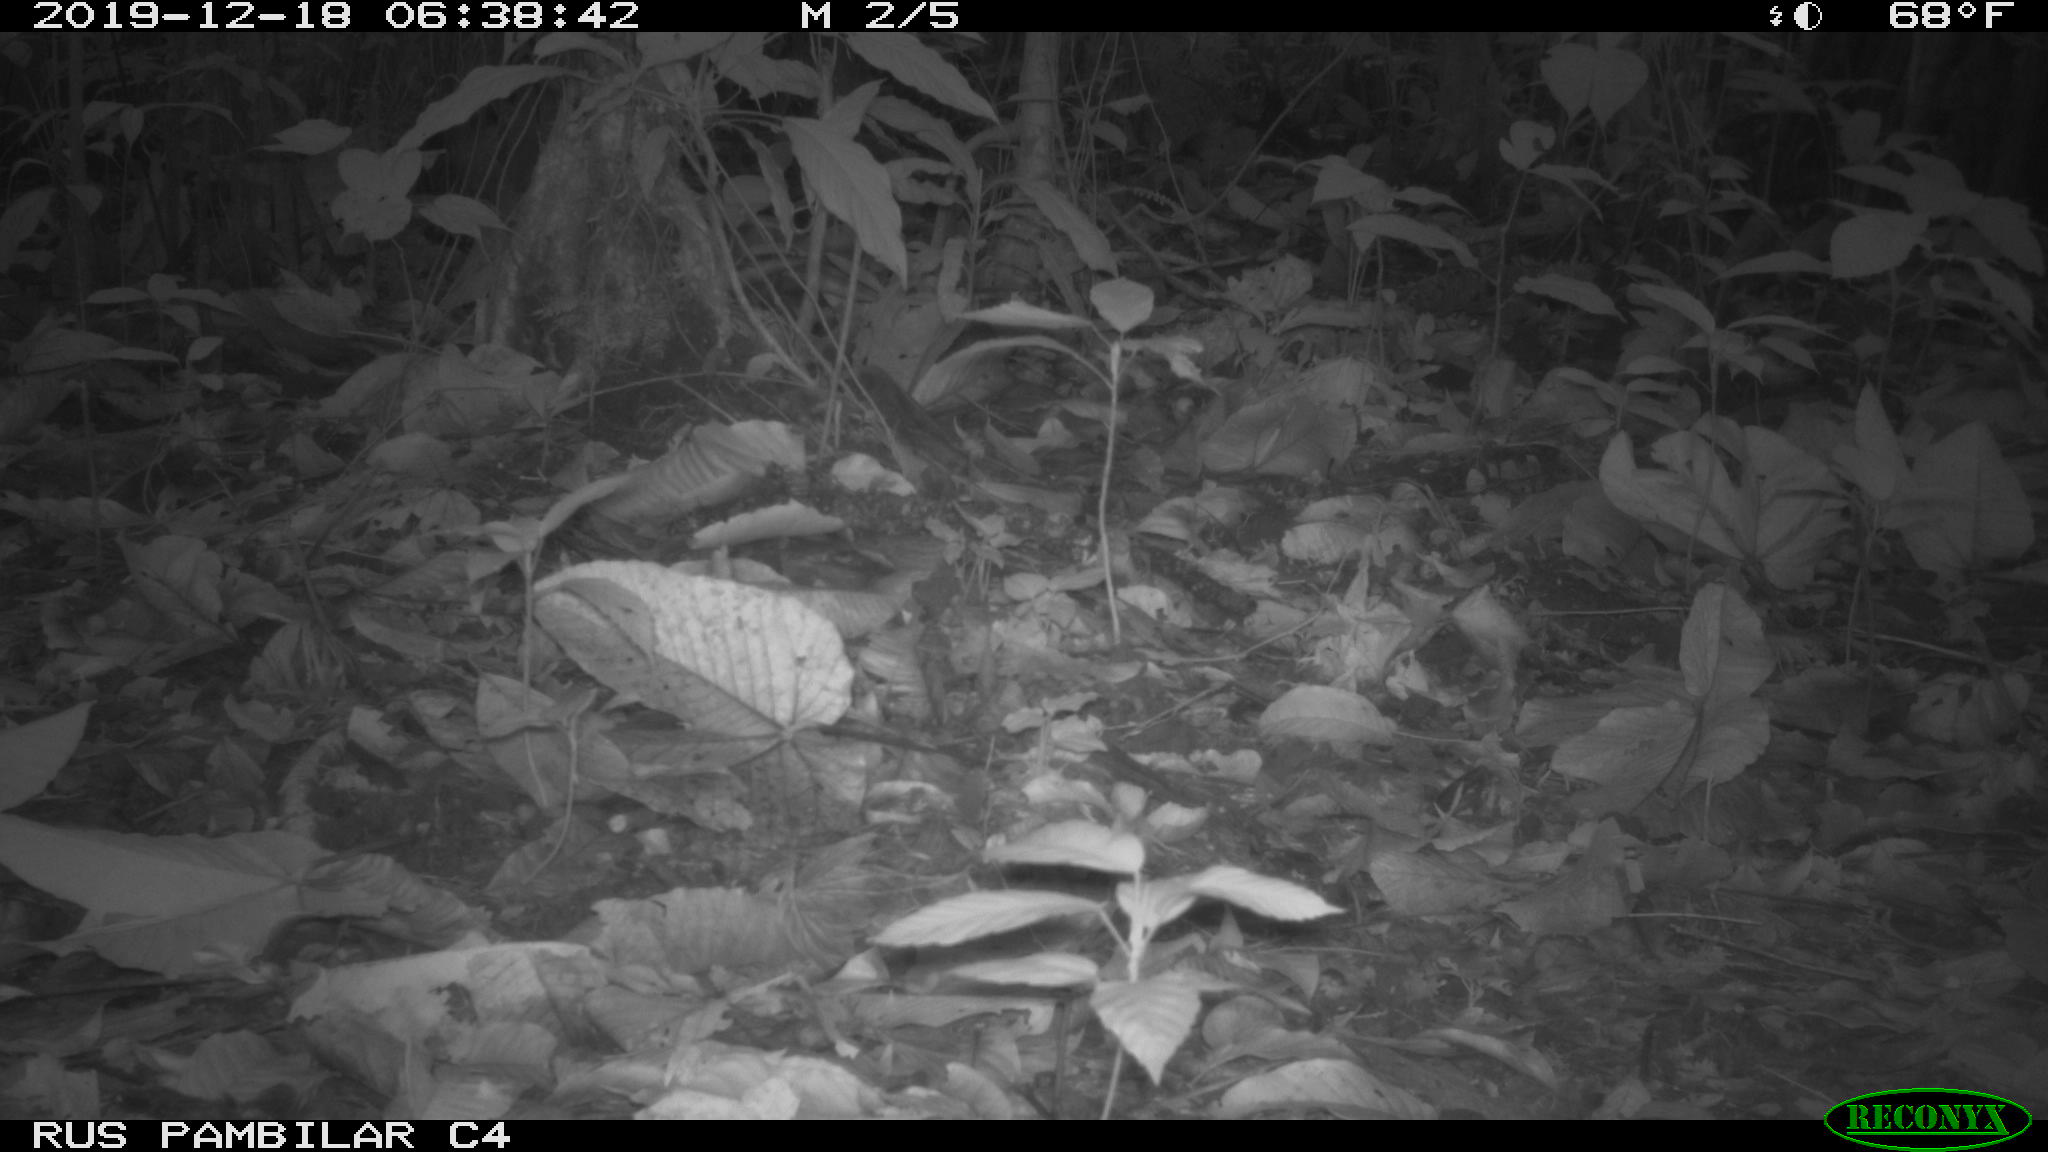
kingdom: Animalia
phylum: Chordata
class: Mammalia
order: Rodentia
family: Dasyproctidae
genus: Dasyprocta
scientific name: Dasyprocta punctata
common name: Central american agouti
